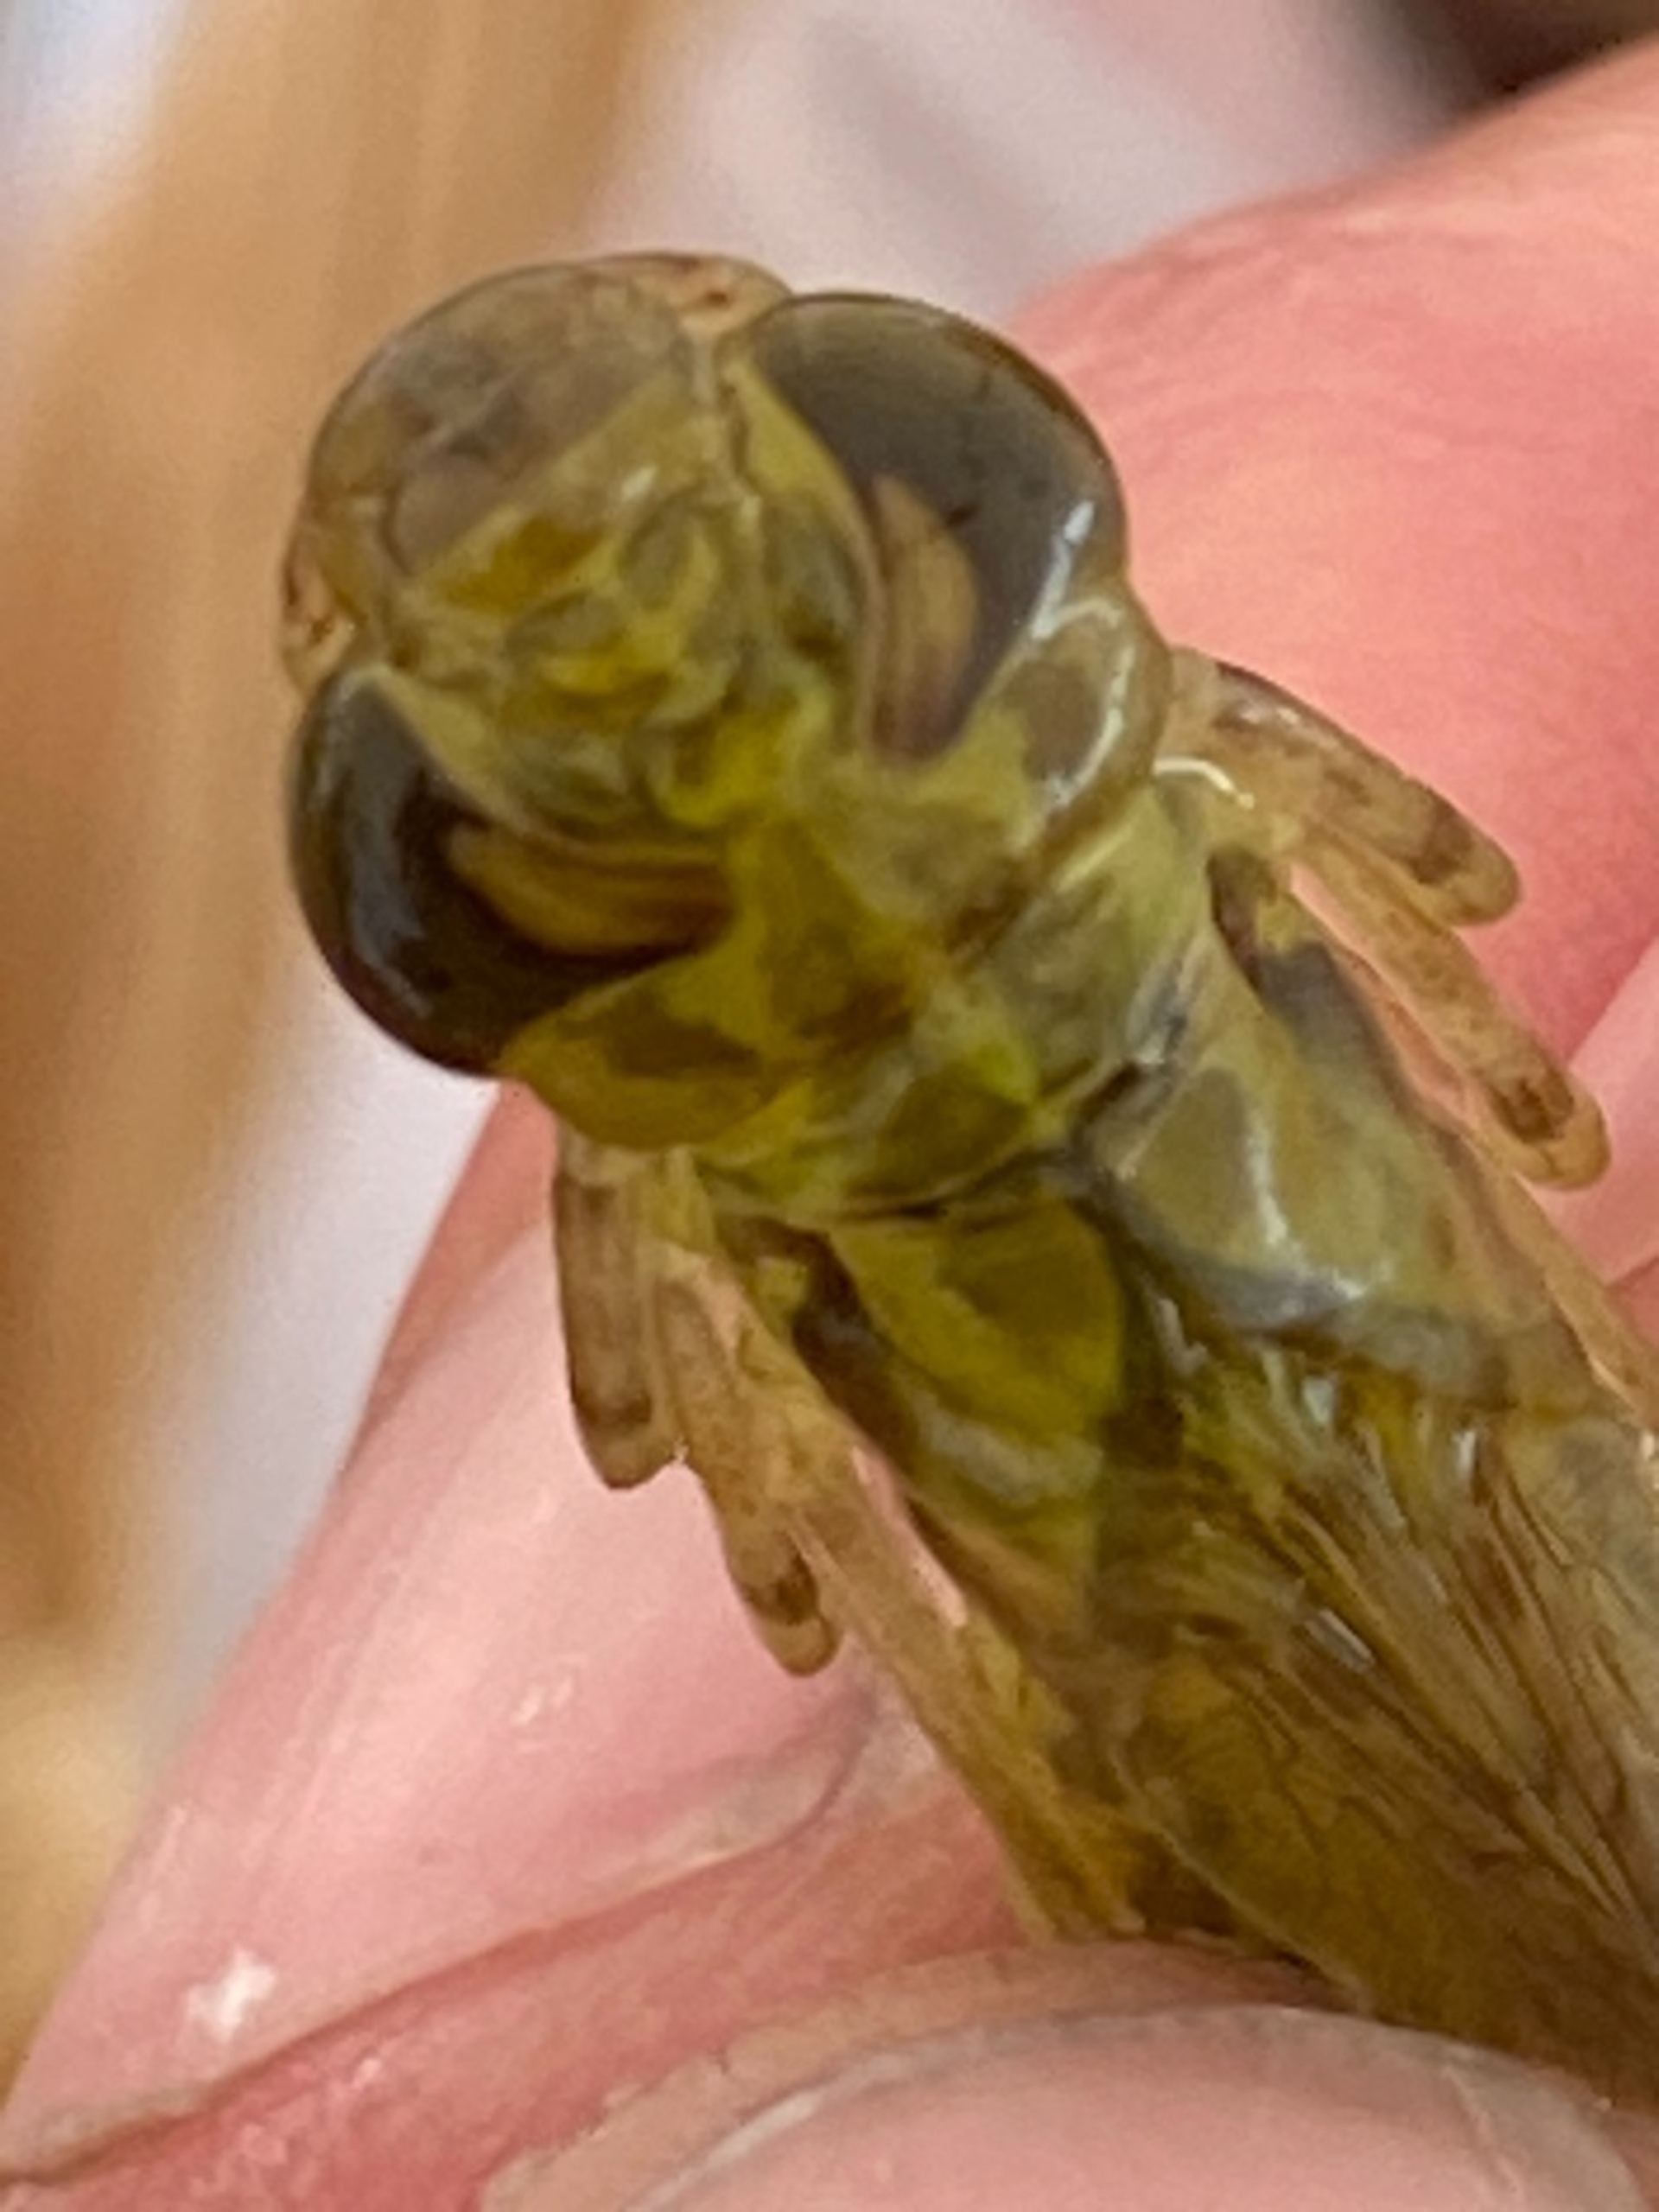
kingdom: Animalia
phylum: Arthropoda
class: Insecta
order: Odonata
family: Aeshnidae
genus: Anax
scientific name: Anax imperator
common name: Stor kejserguldsmed
